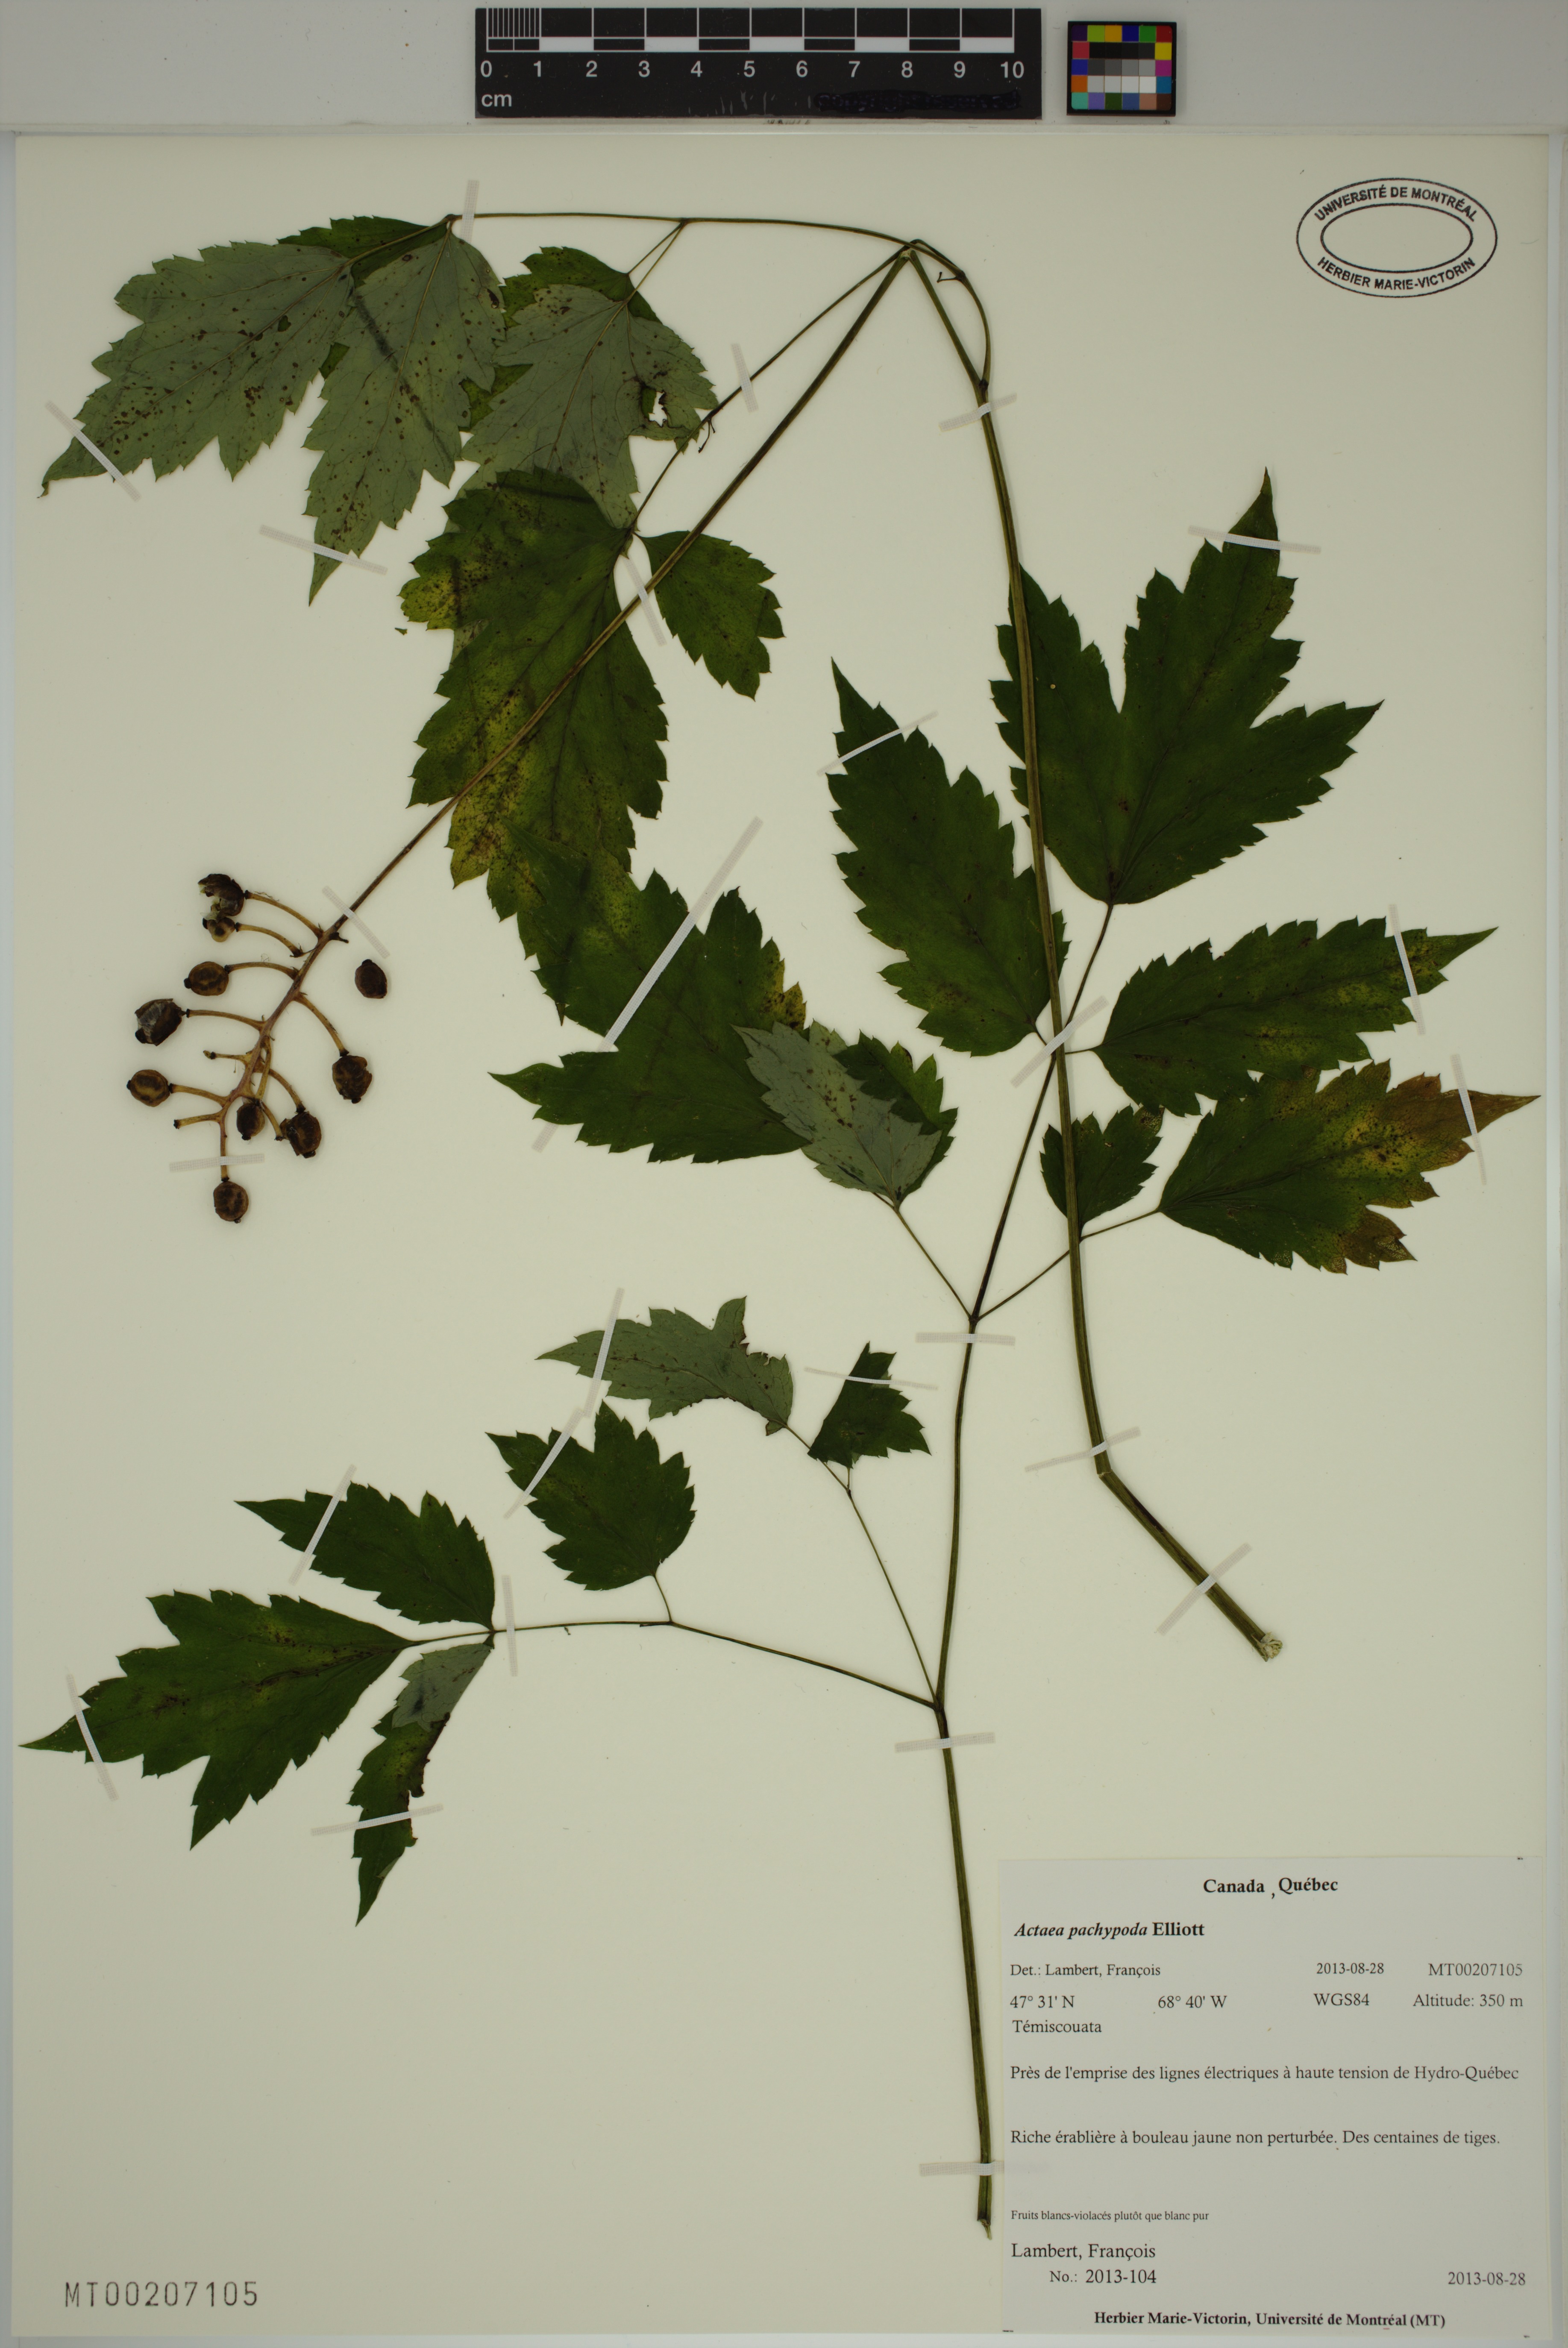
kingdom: Plantae
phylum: Tracheophyta
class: Magnoliopsida
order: Ranunculales
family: Ranunculaceae
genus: Actaea
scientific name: Actaea pachypoda
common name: Doll's-eyes
